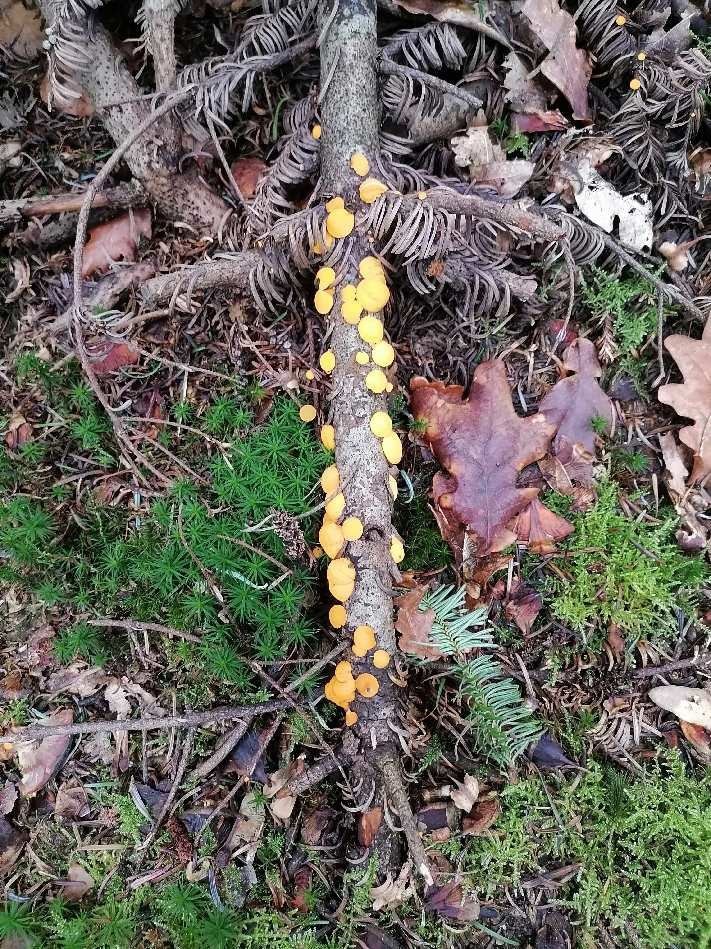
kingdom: Fungi
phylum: Ascomycota
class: Pezizomycetes
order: Pezizales
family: Sarcoscyphaceae
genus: Pithya
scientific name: Pithya vulgaris
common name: stor dukatbæger
